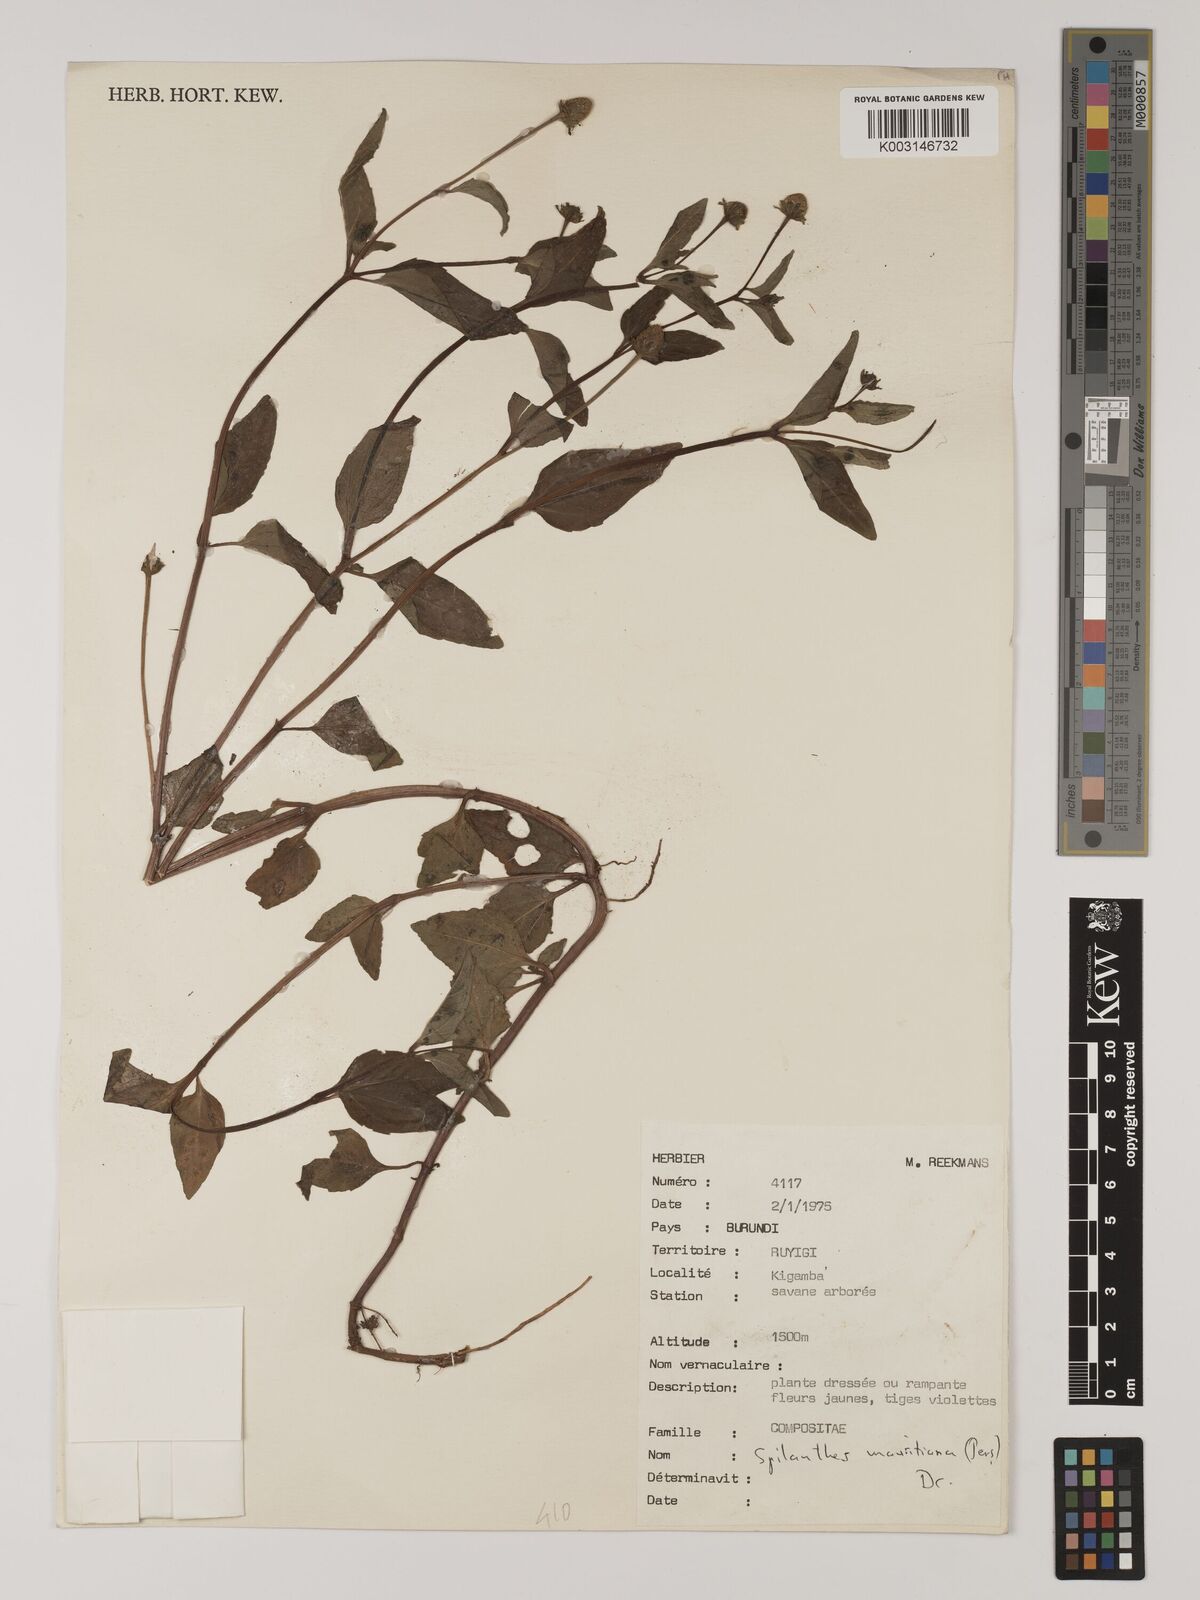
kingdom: Plantae
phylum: Tracheophyta
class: Magnoliopsida
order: Asterales
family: Asteraceae
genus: Blainvillea
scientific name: Blainvillea acmella
